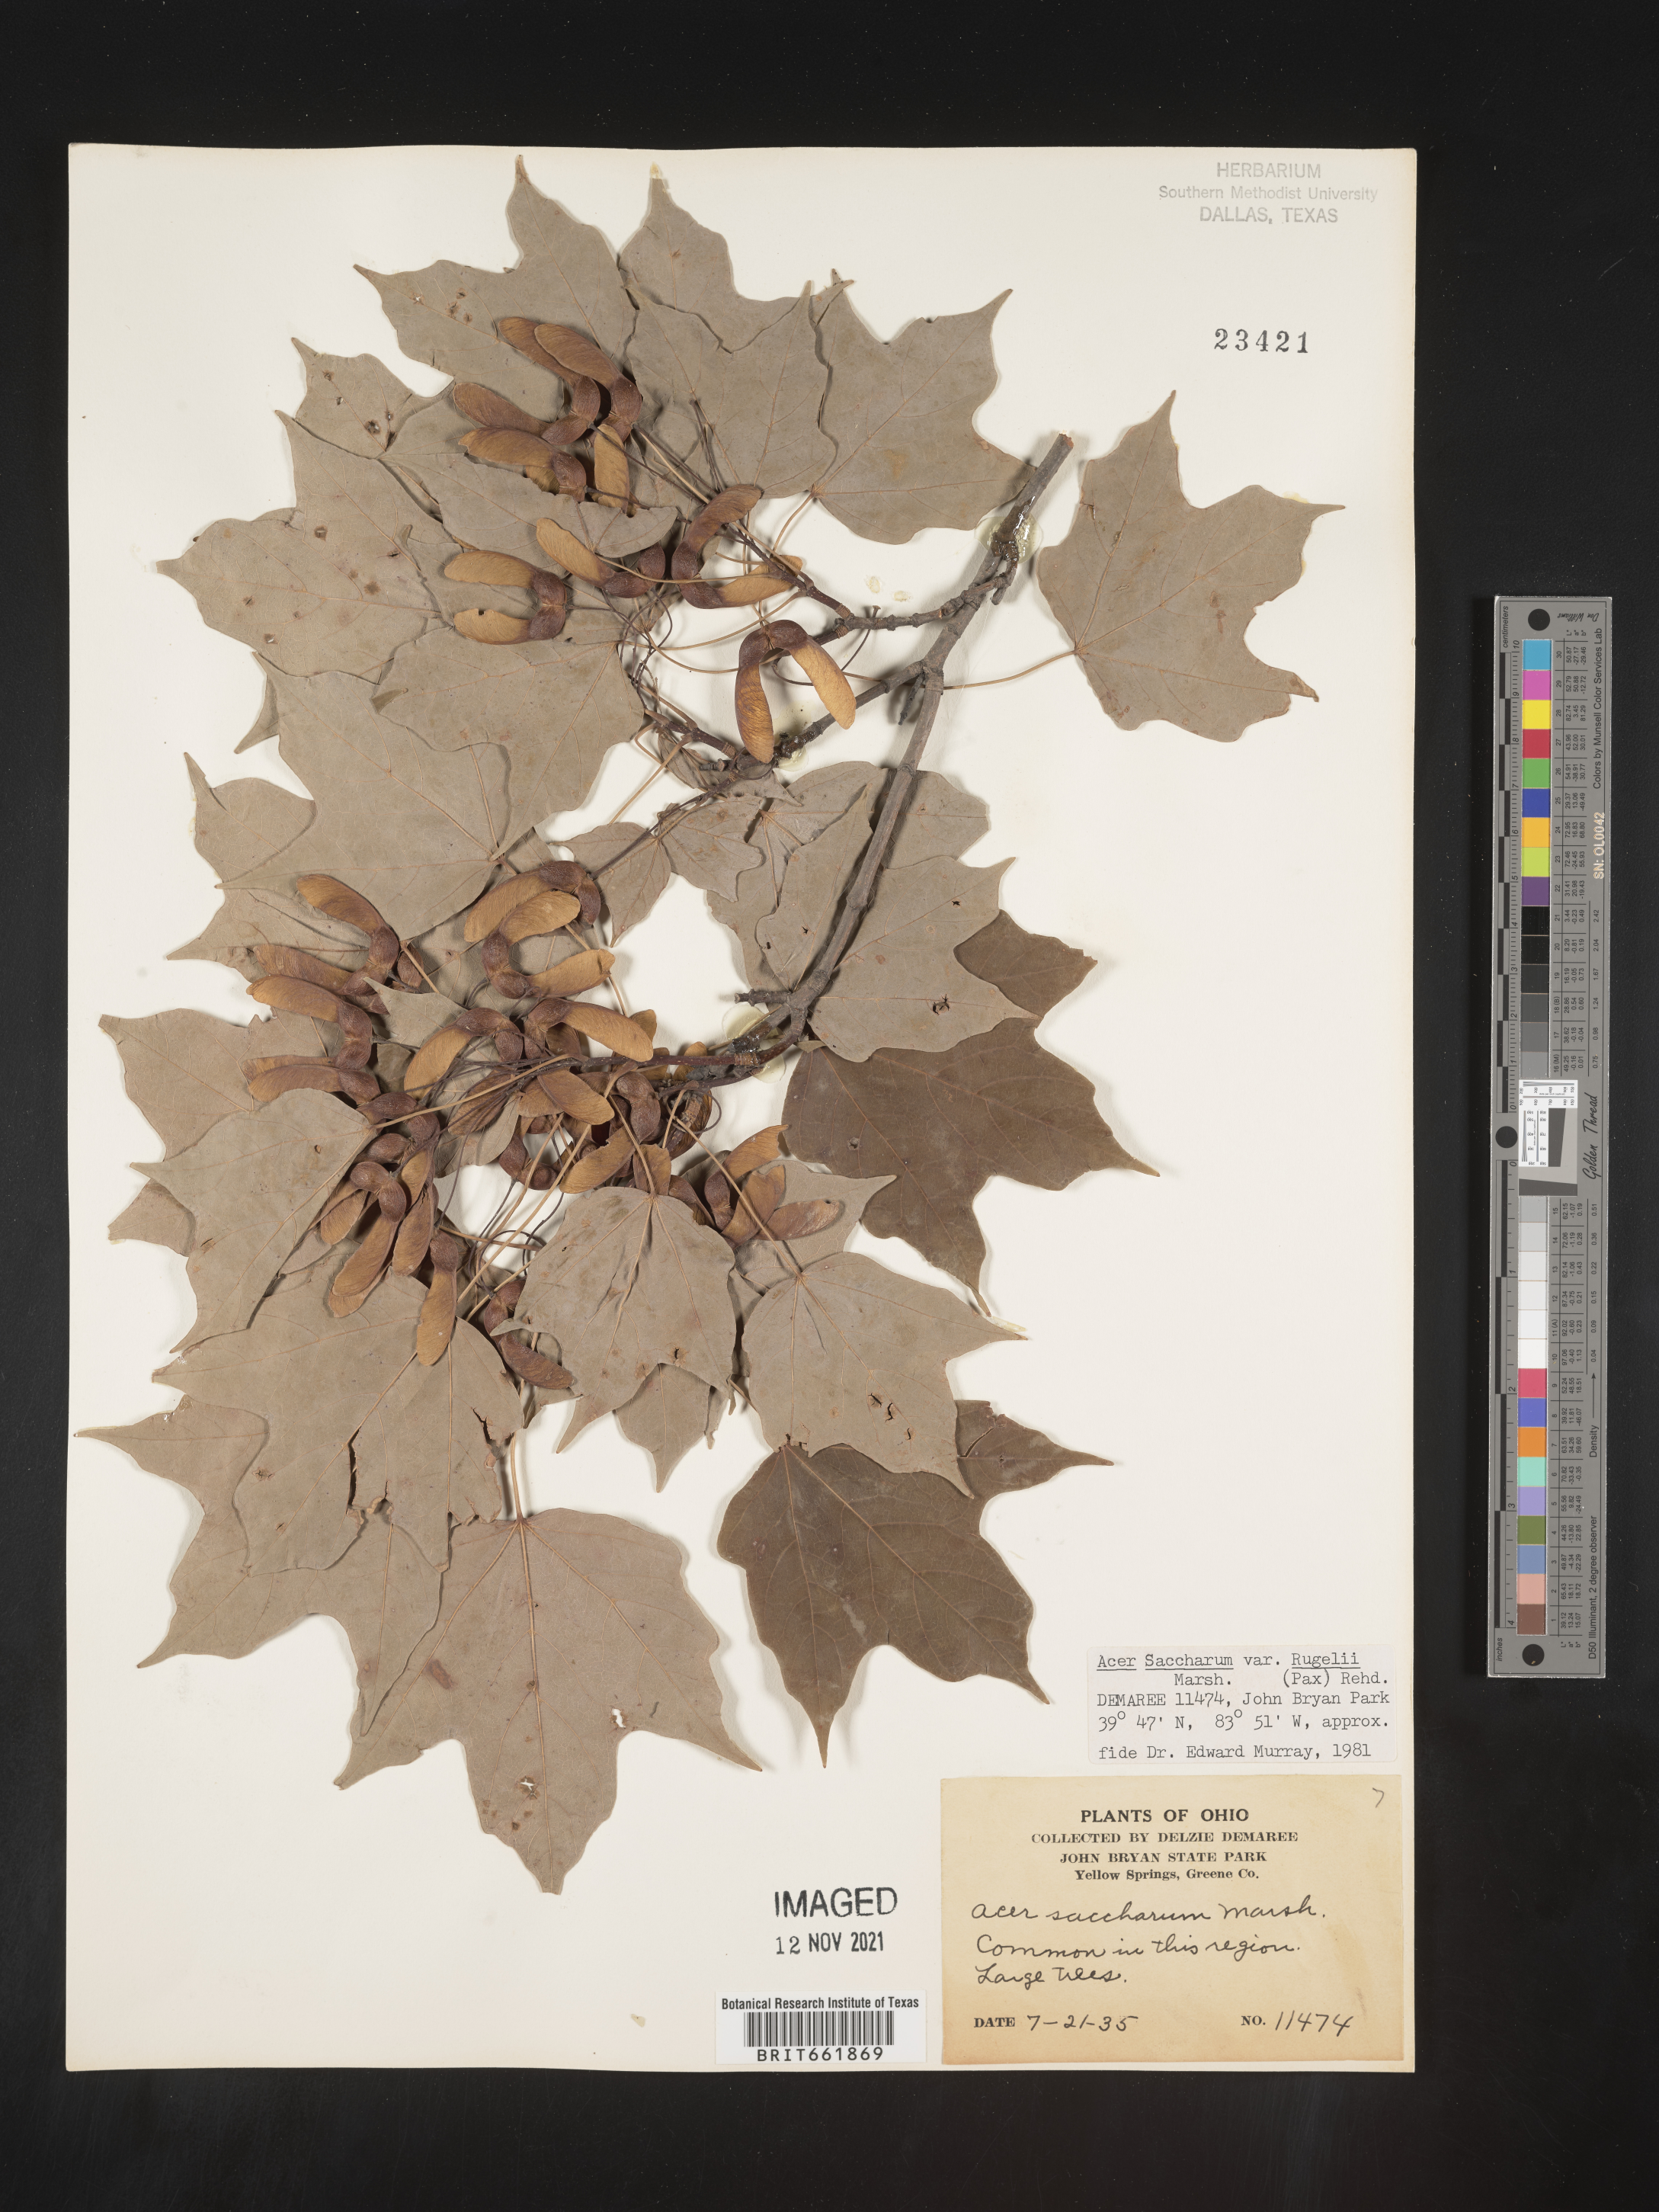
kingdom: Plantae
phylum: Tracheophyta
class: Magnoliopsida
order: Sapindales
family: Sapindaceae
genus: Acer
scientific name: Acer saccharum
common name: Sugar maple
